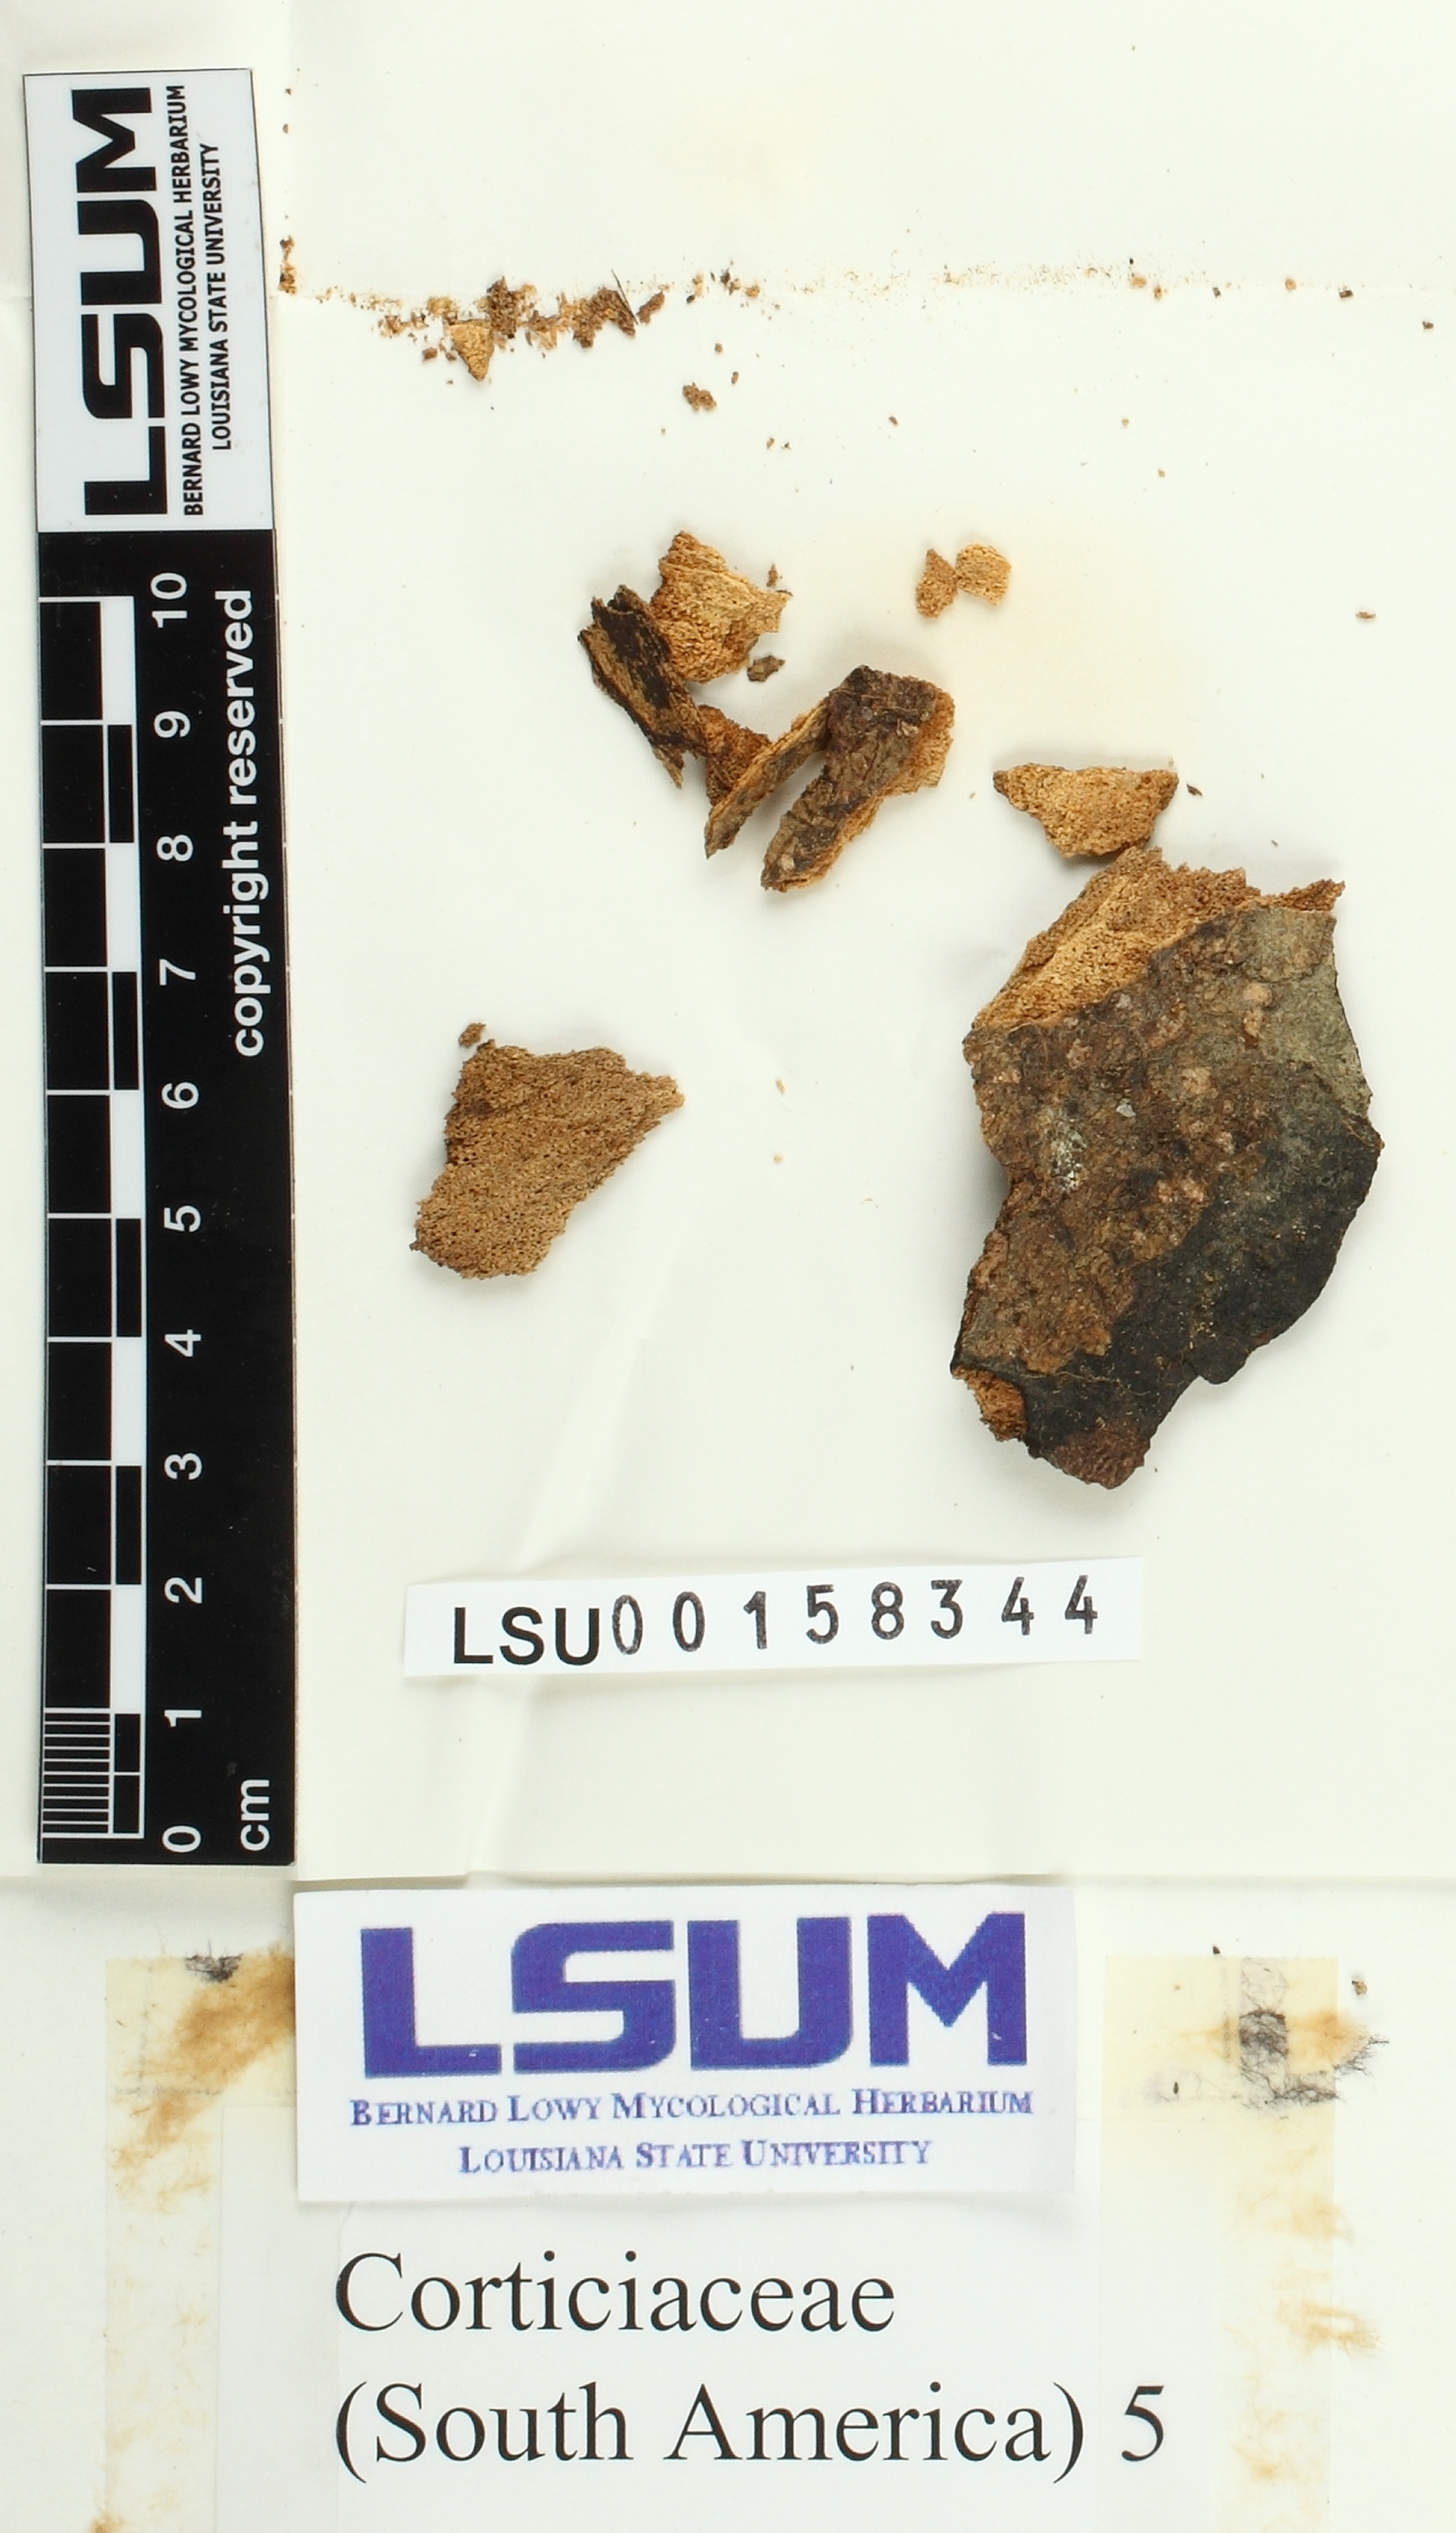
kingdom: Fungi
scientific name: Fungi
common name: Fungi
